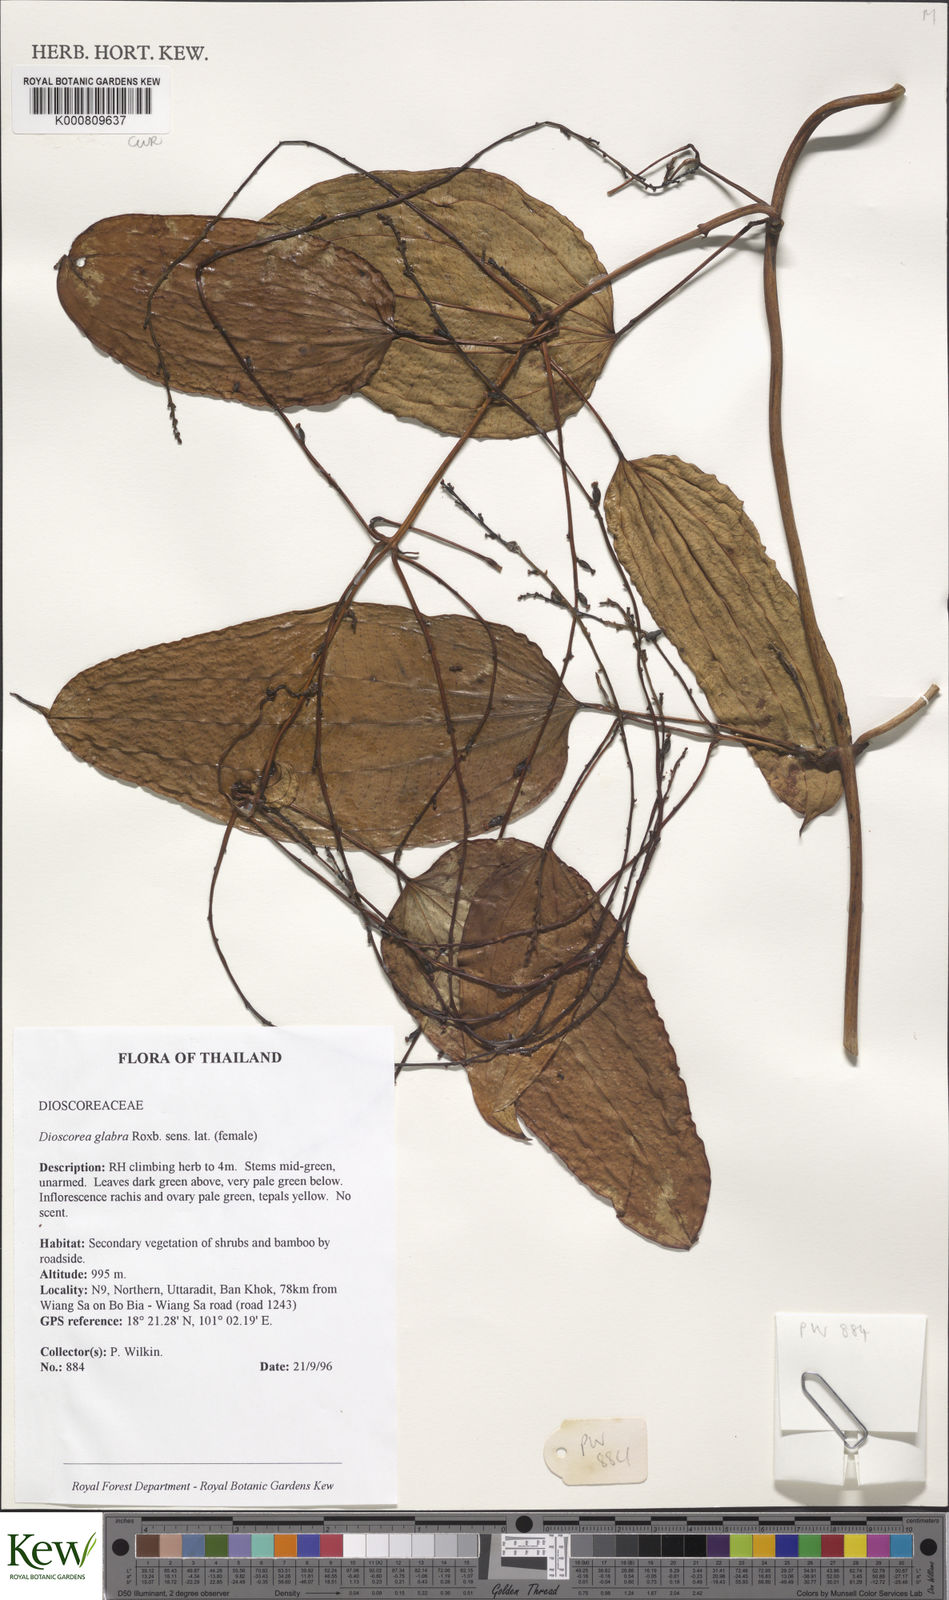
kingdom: Plantae
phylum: Tracheophyta
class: Liliopsida
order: Dioscoreales
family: Dioscoreaceae
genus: Dioscorea
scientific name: Dioscorea glabra
